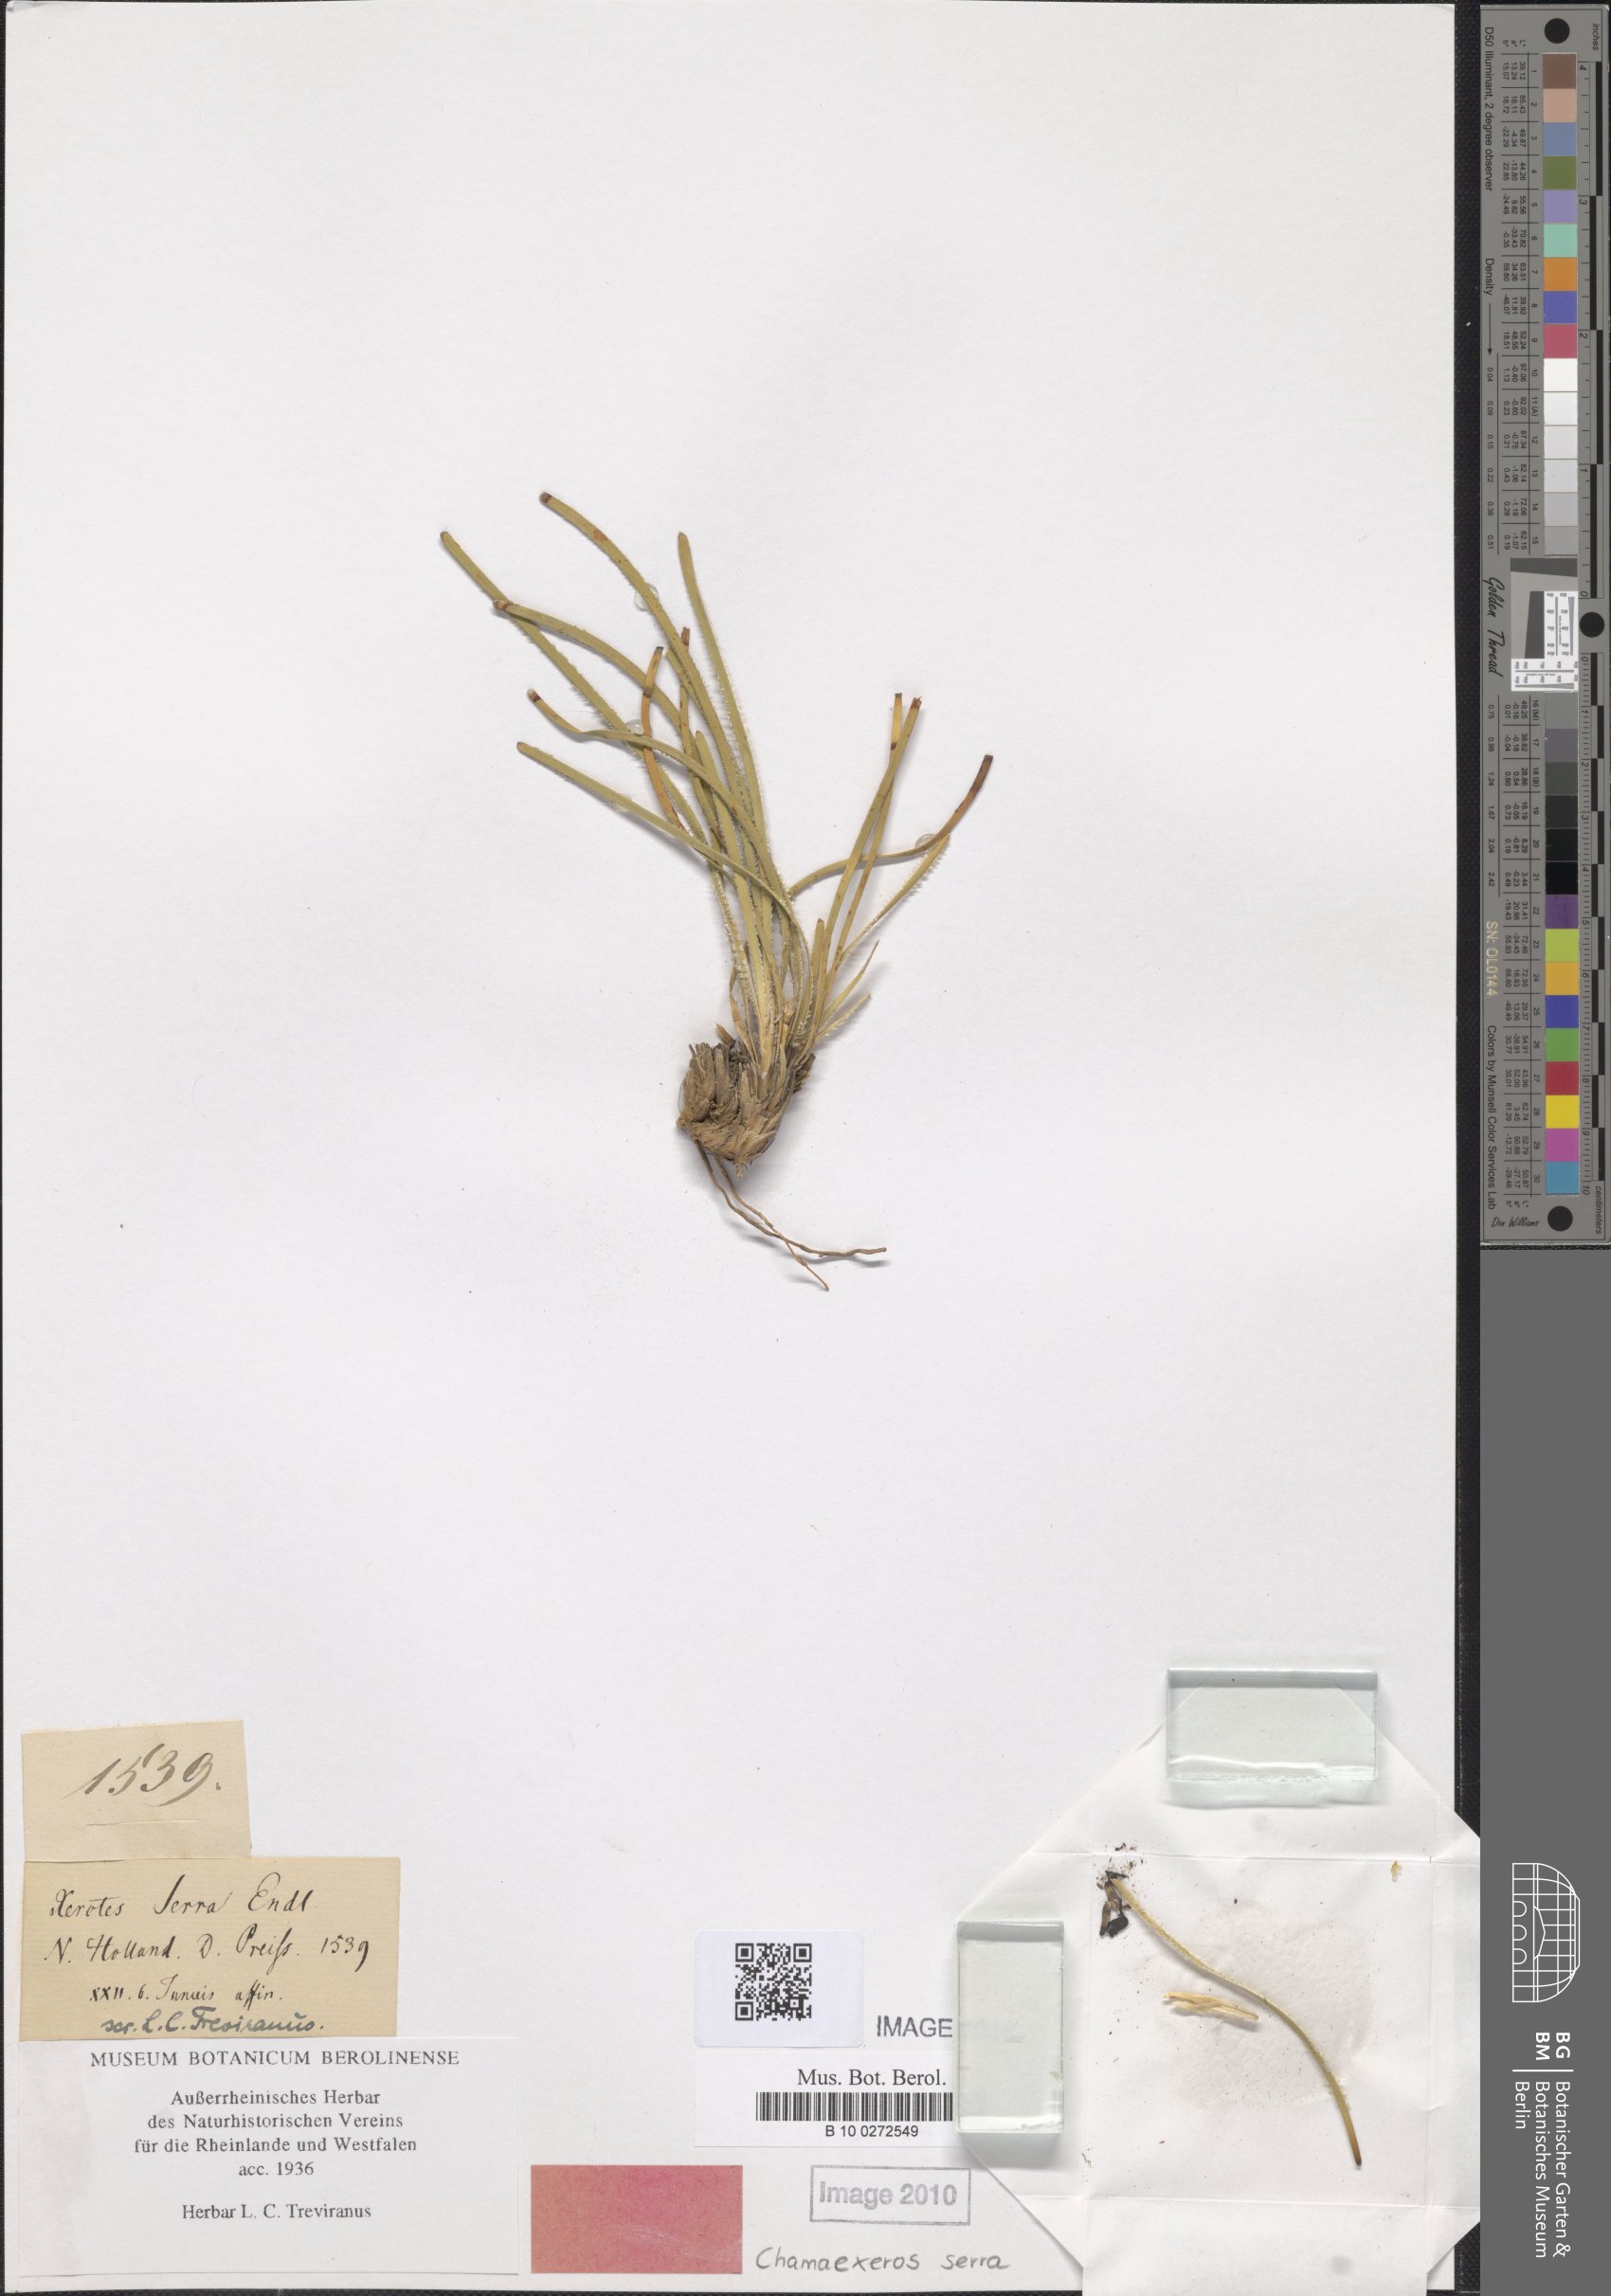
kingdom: Plantae
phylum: Tracheophyta
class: Liliopsida
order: Asparagales
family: Asparagaceae
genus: Chamaexeros
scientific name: Chamaexeros serra
